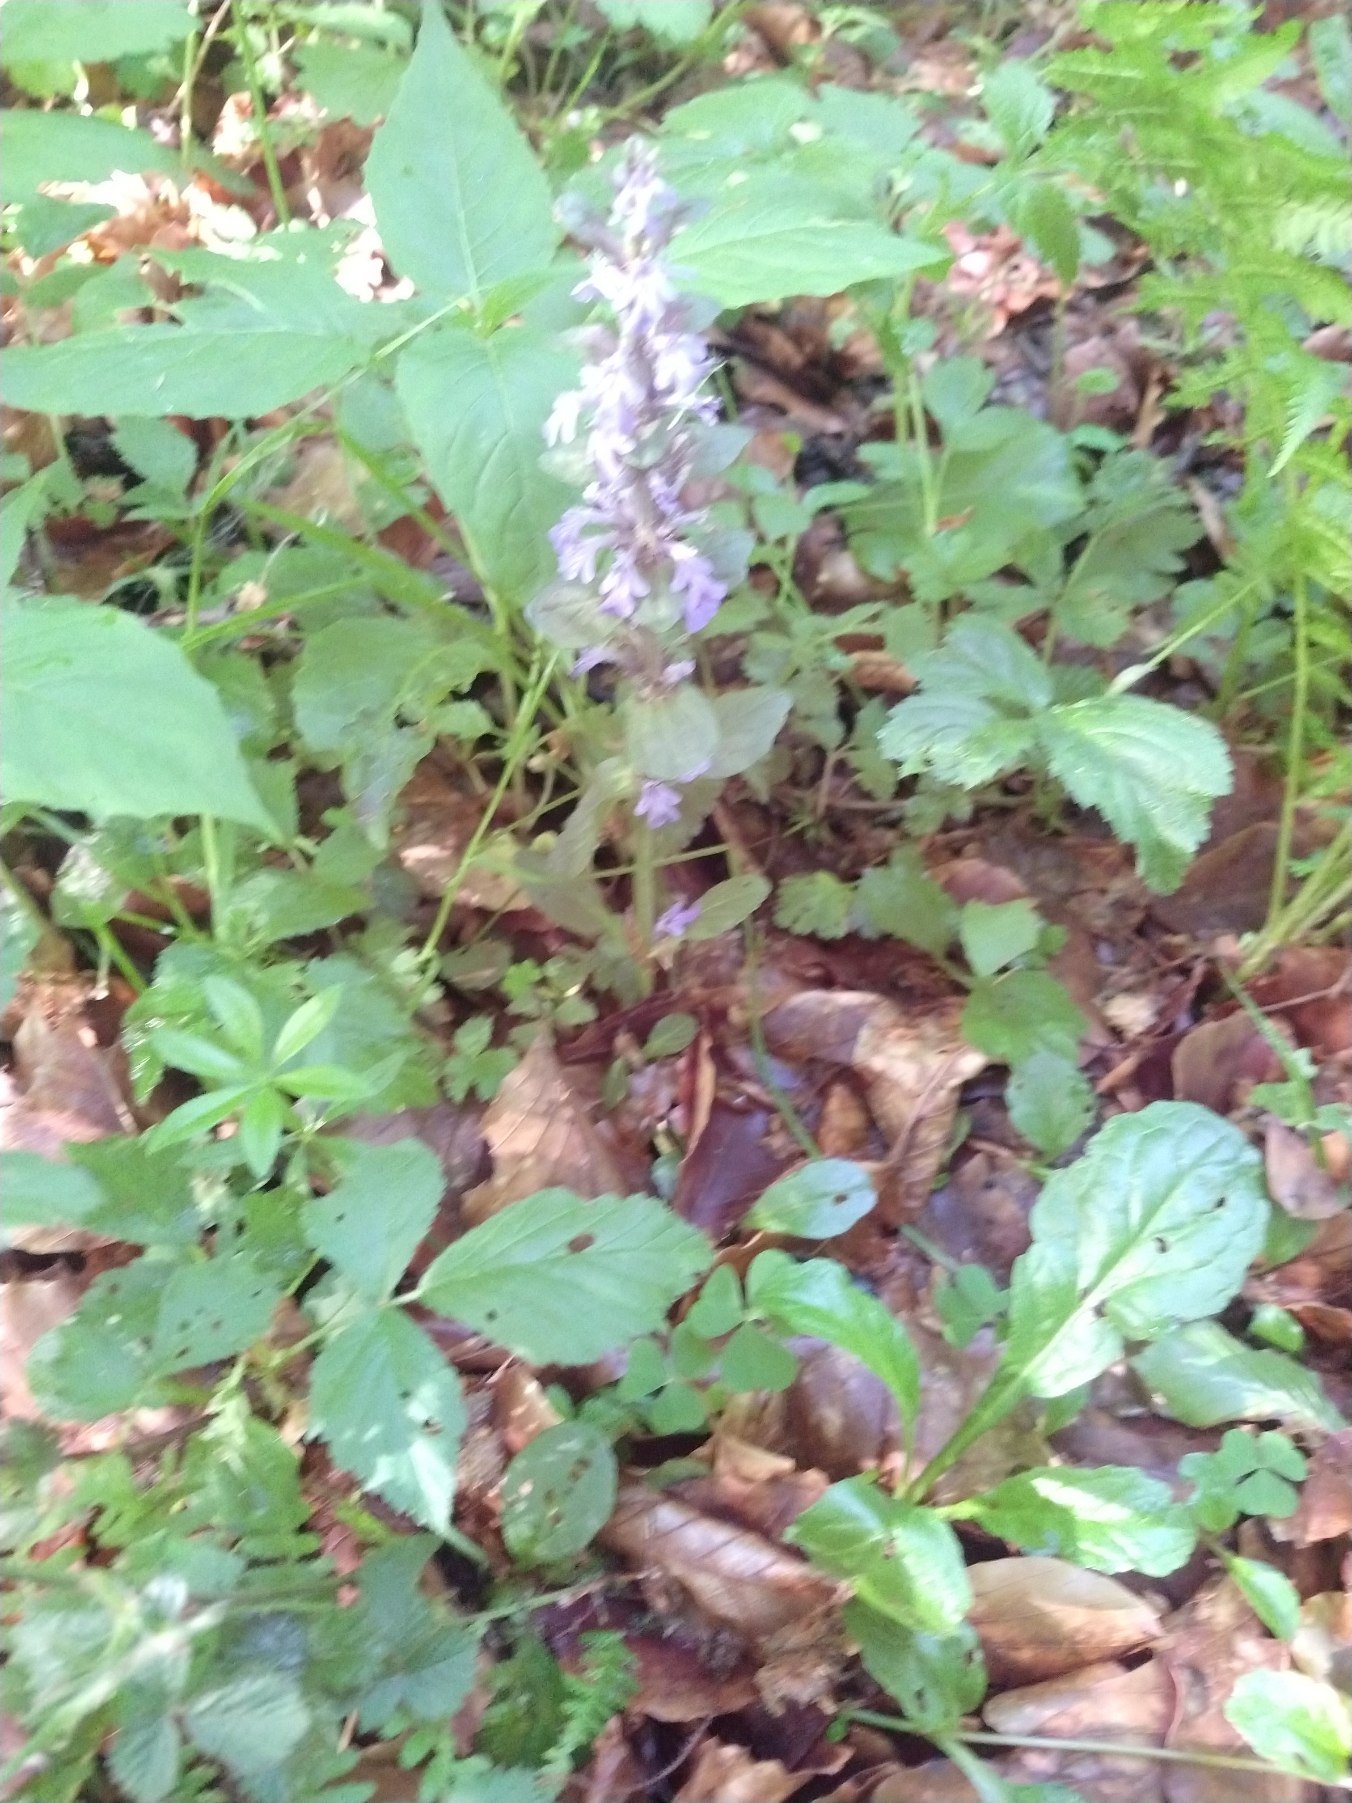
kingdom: Plantae
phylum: Tracheophyta
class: Magnoliopsida
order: Lamiales
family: Lamiaceae
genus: Ajuga
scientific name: Ajuga reptans
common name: Krybende læbeløs
